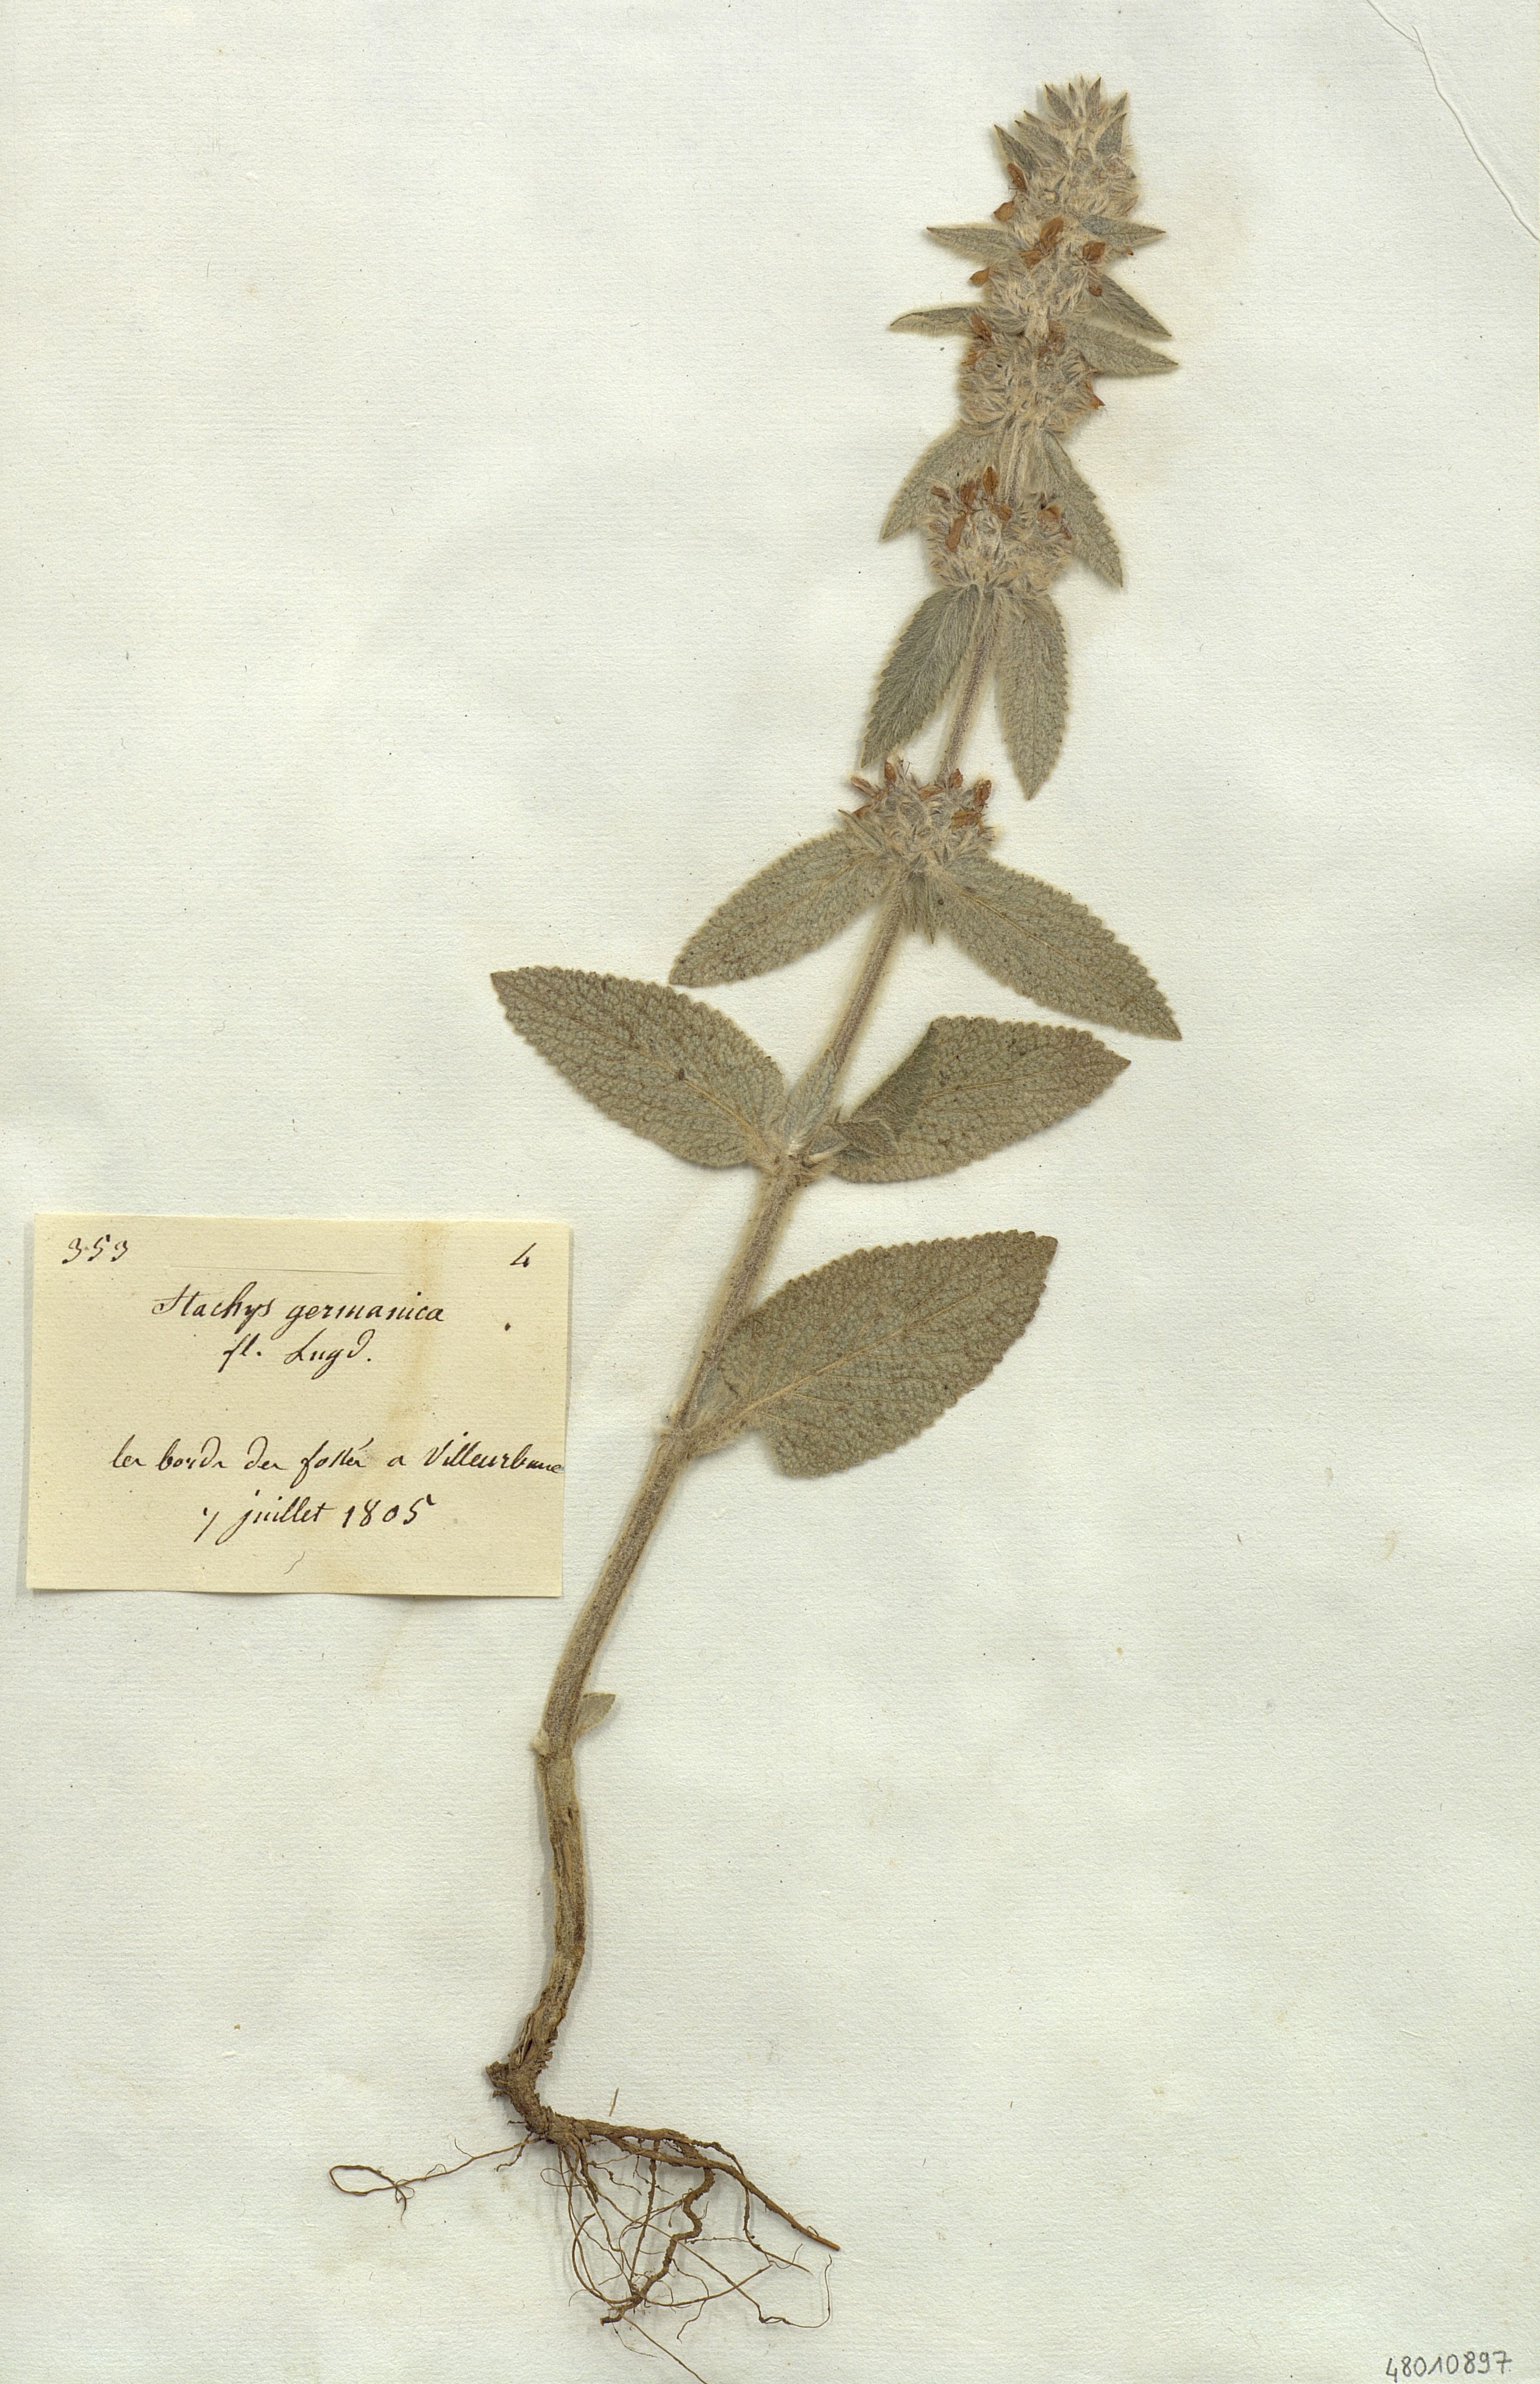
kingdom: Plantae
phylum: Tracheophyta
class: Magnoliopsida
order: Lamiales
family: Lamiaceae
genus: Stachys
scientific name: Stachys germanica
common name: Downy woundwort
